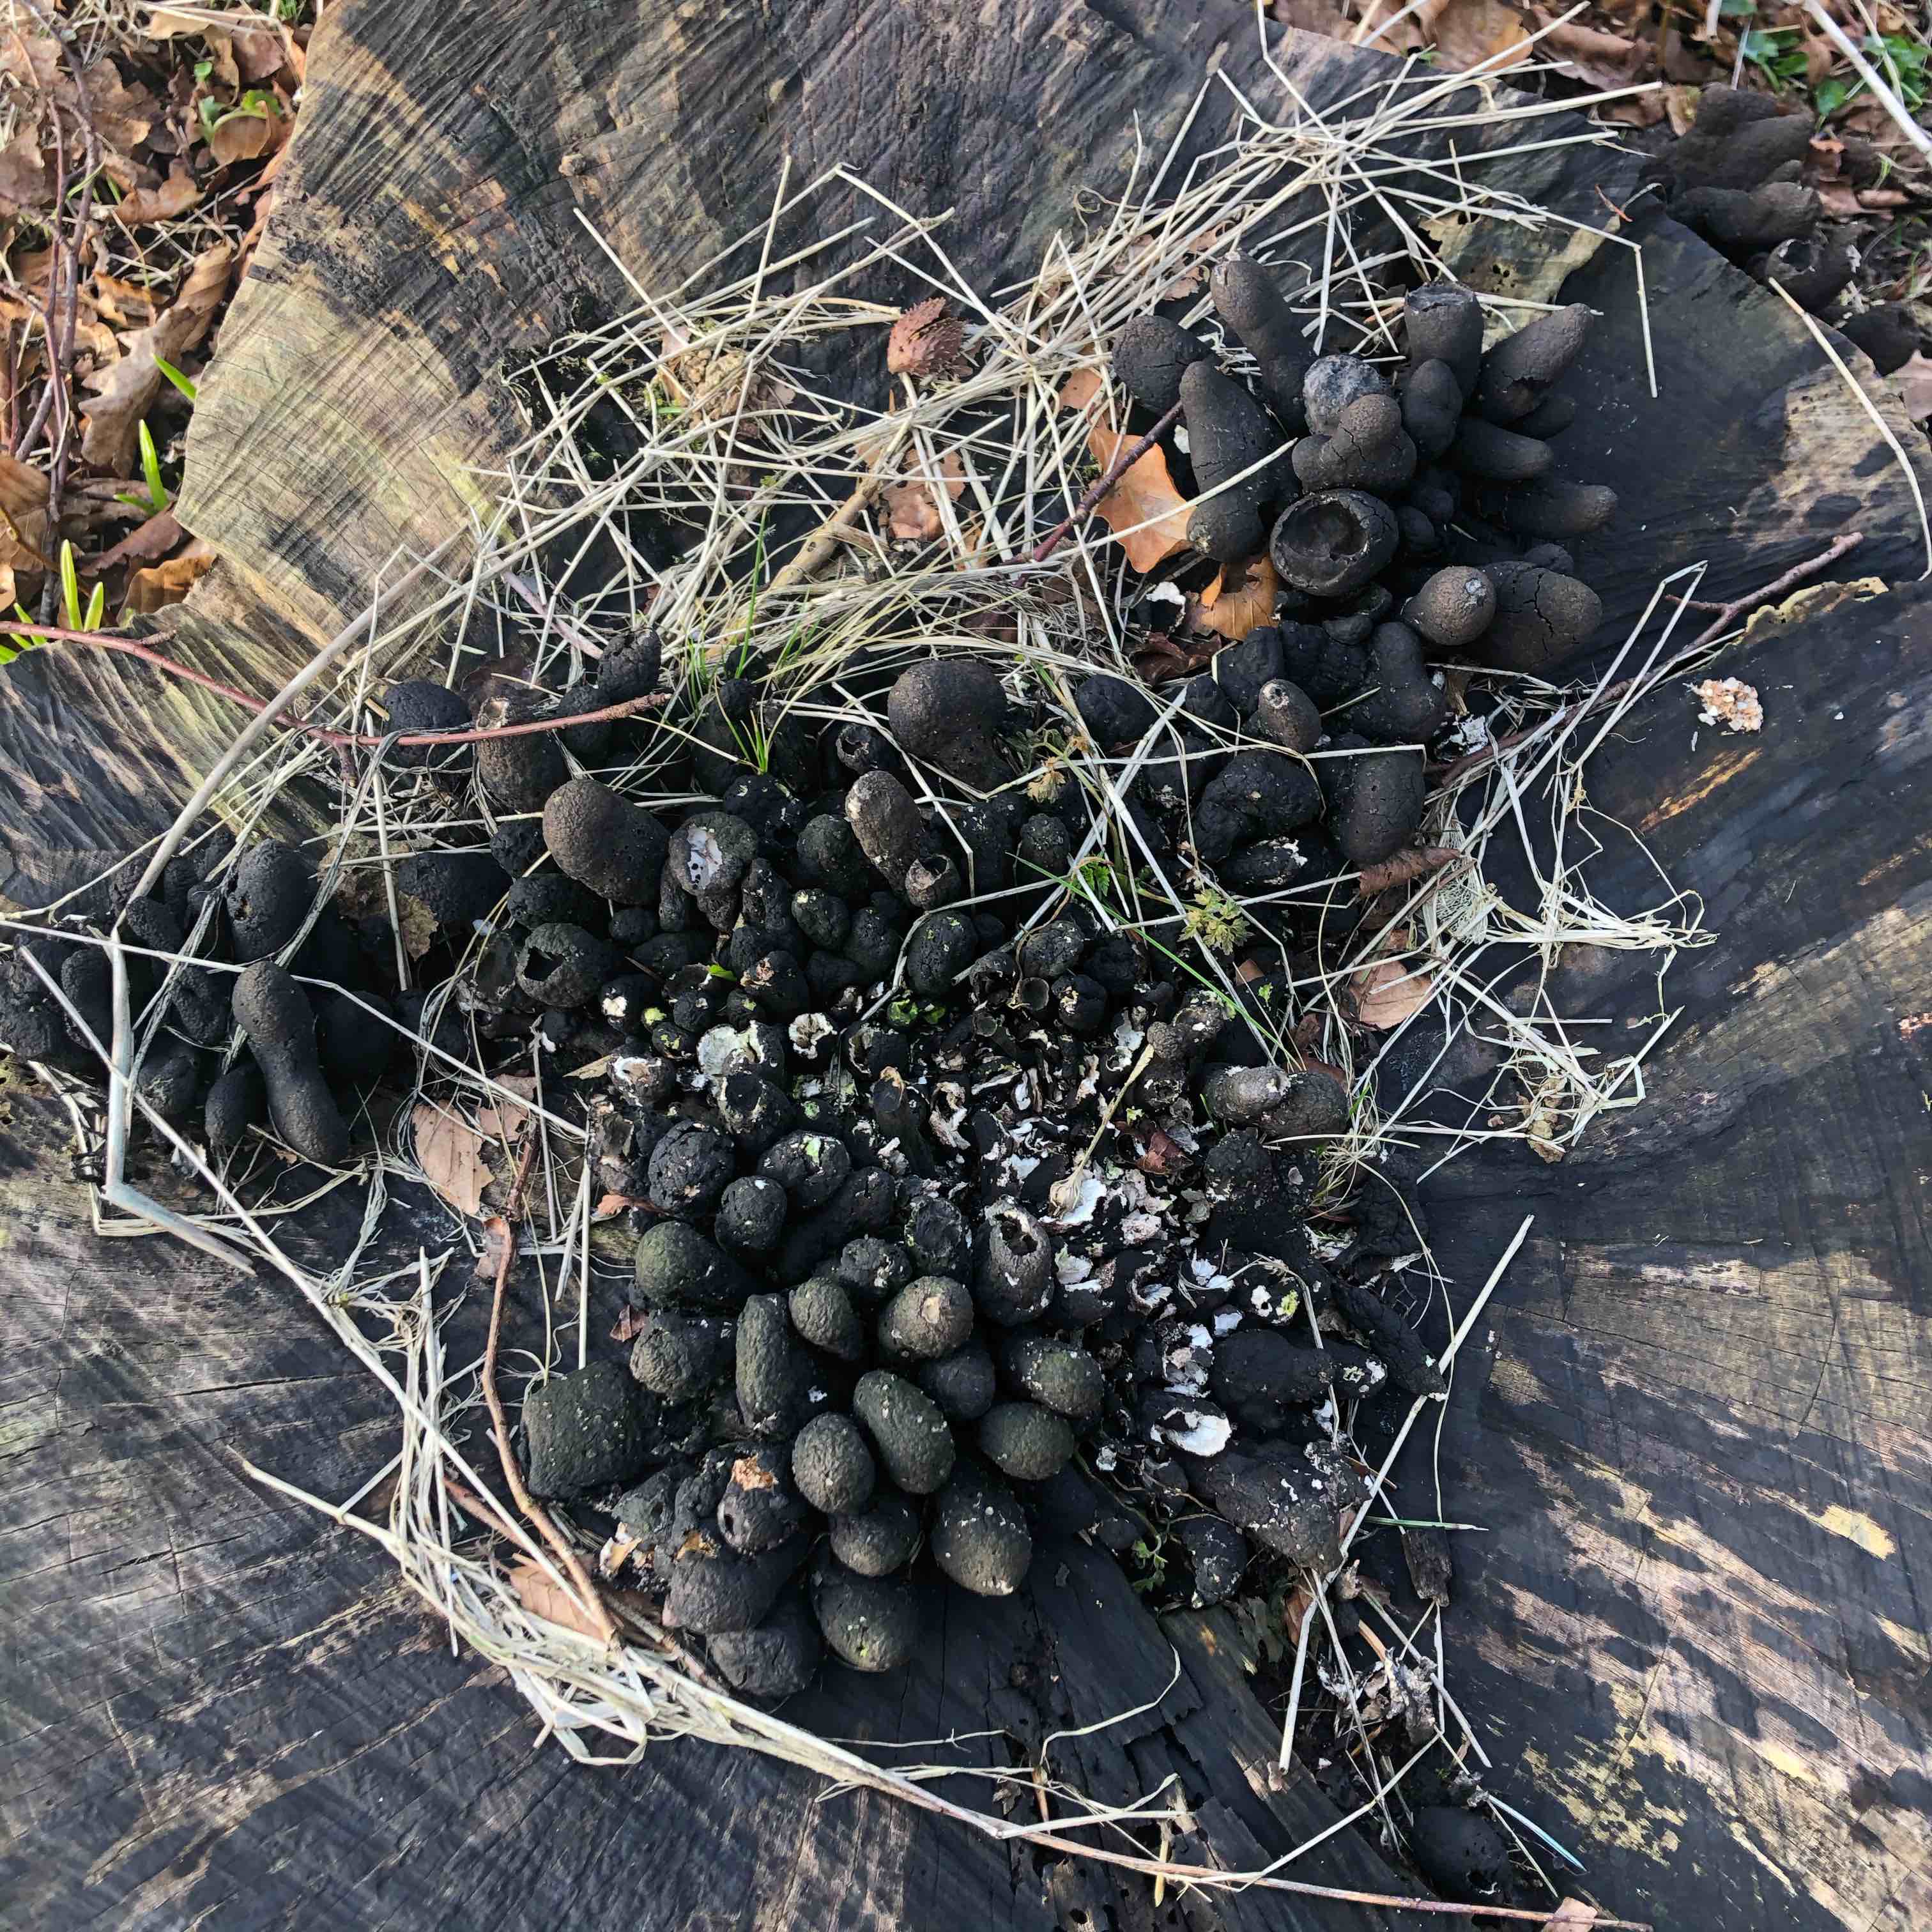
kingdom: Fungi
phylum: Ascomycota
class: Sordariomycetes
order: Xylariales
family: Xylariaceae
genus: Xylaria
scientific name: Xylaria polymorpha
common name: kølle-stødsvamp
